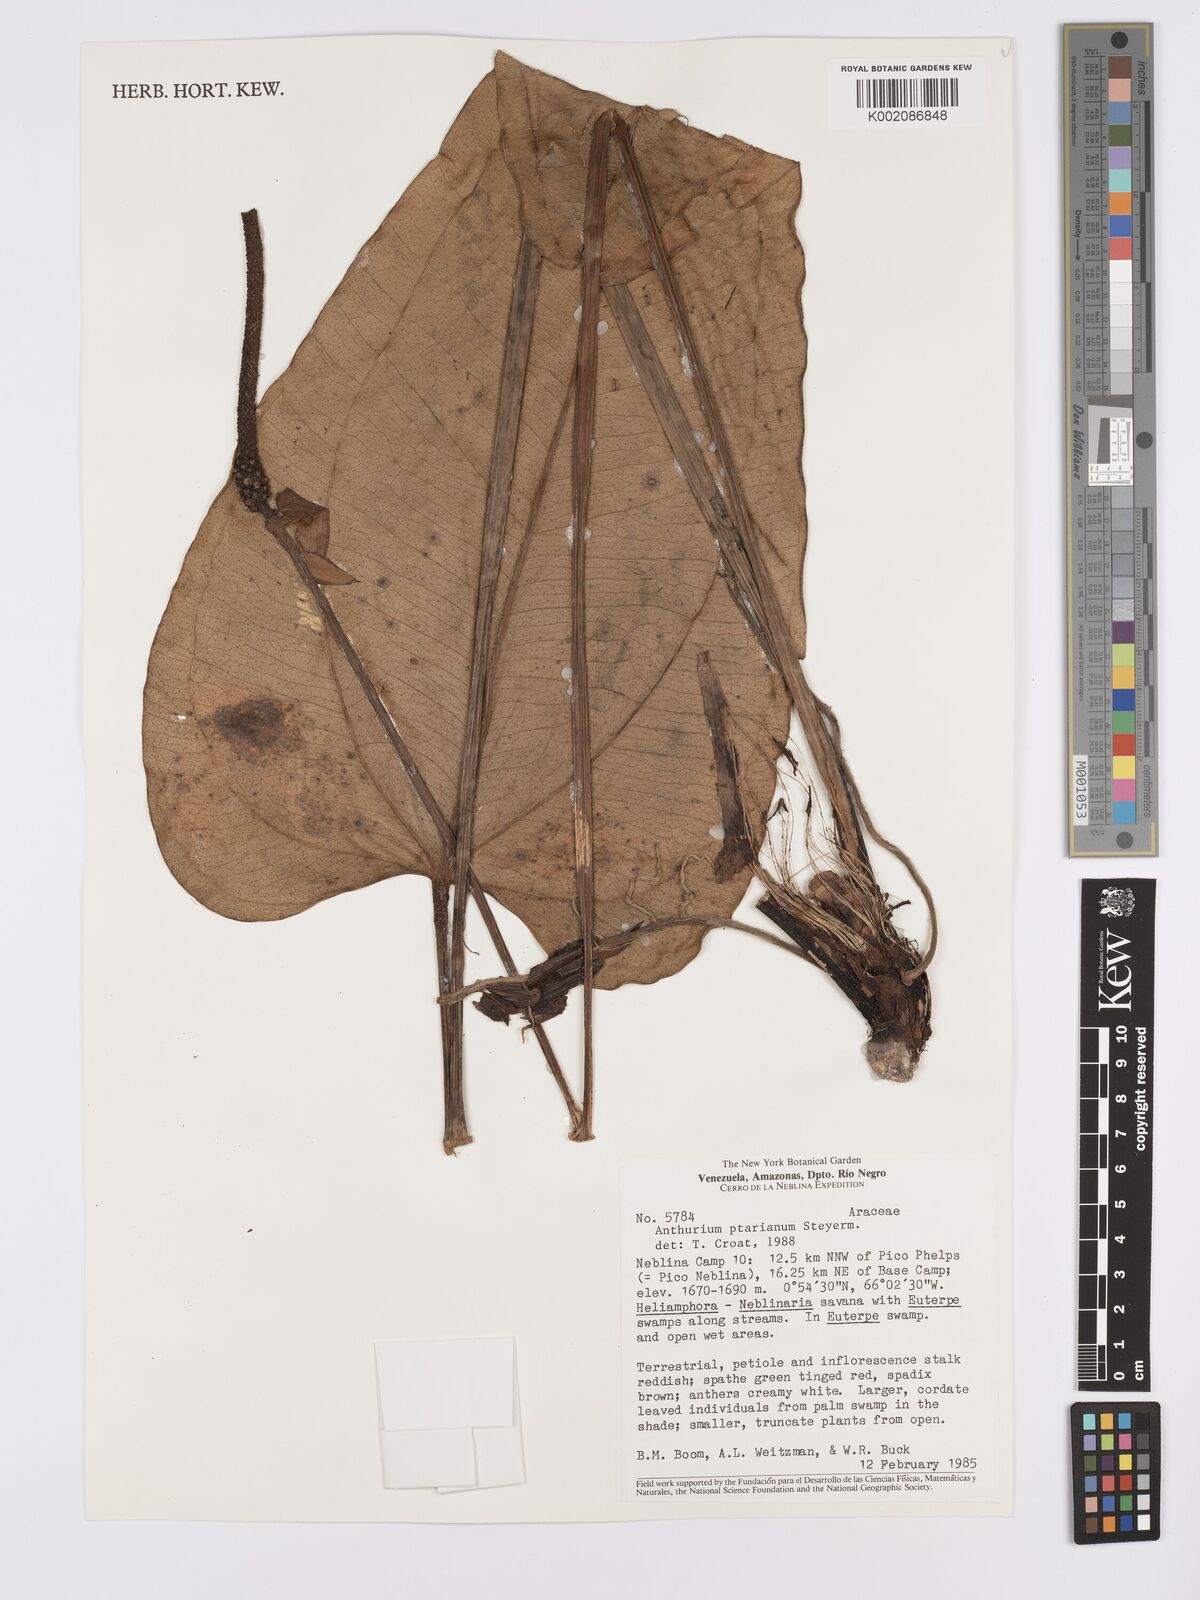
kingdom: Plantae
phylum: Tracheophyta
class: Liliopsida
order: Alismatales
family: Araceae
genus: Anthurium
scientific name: Anthurium ptarianum
